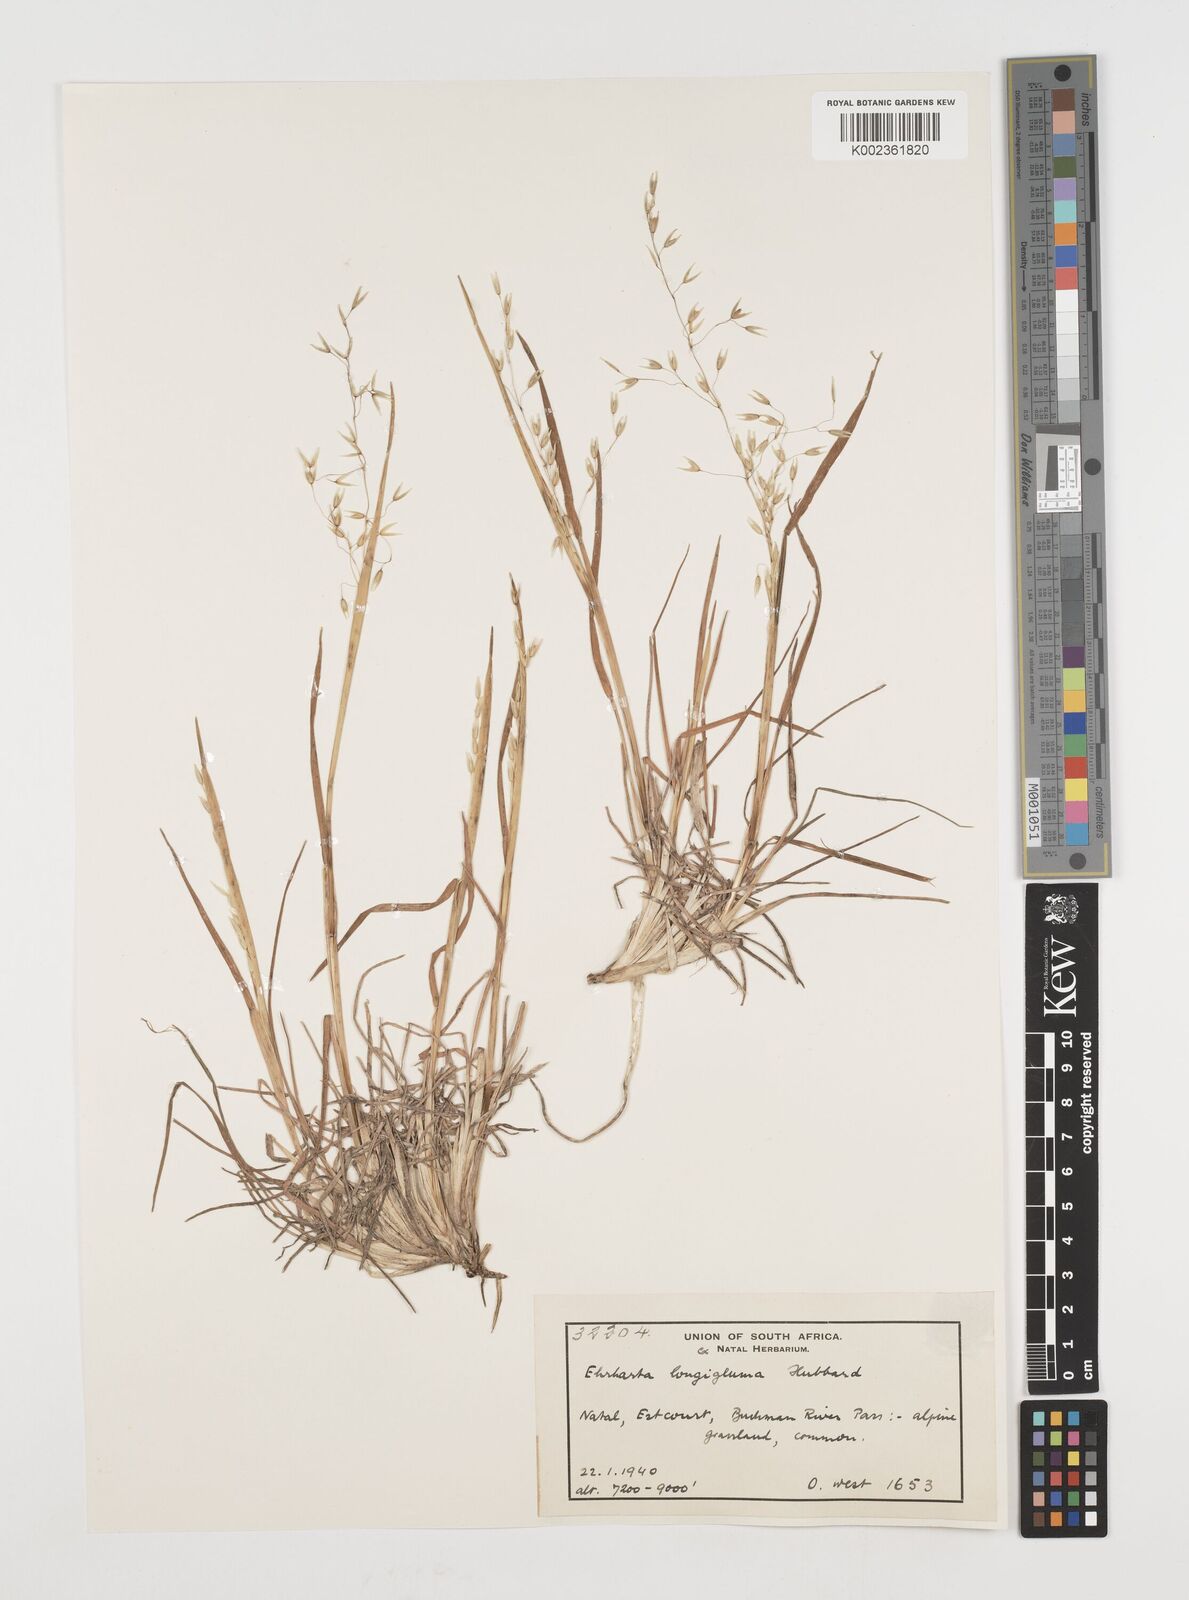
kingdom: Plantae
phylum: Tracheophyta
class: Liliopsida
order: Poales
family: Poaceae
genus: Ehrharta
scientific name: Ehrharta longigluma
